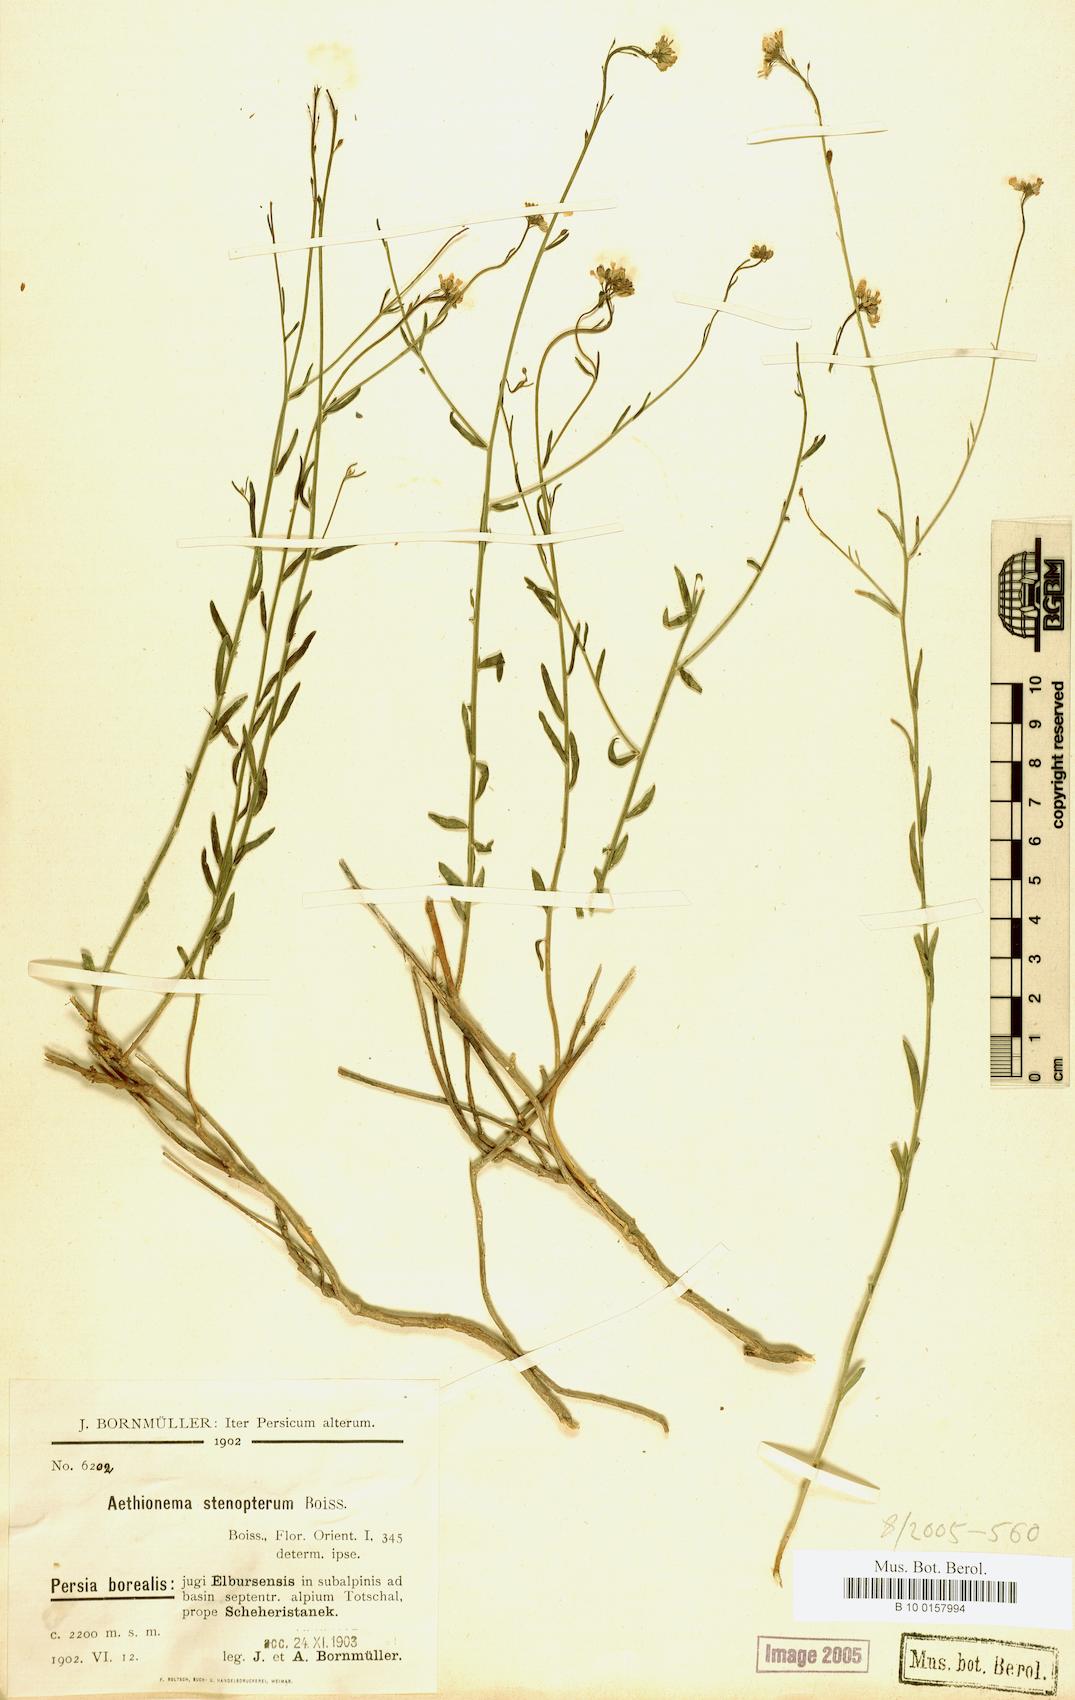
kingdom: Plantae
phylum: Tracheophyta
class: Magnoliopsida
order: Brassicales
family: Brassicaceae
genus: Aethionema
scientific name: Aethionema stenopterum
